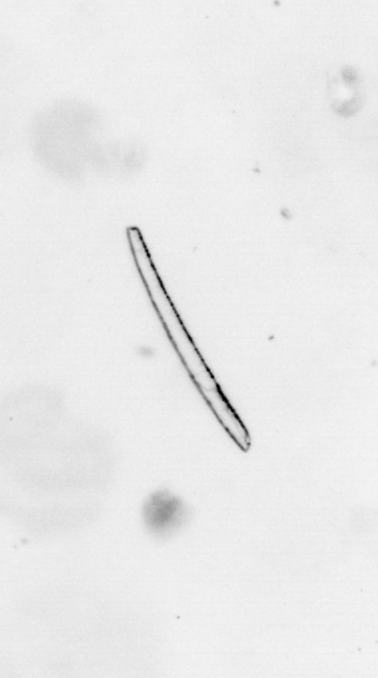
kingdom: Chromista
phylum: Ochrophyta
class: Bacillariophyceae
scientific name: Bacillariophyceae
